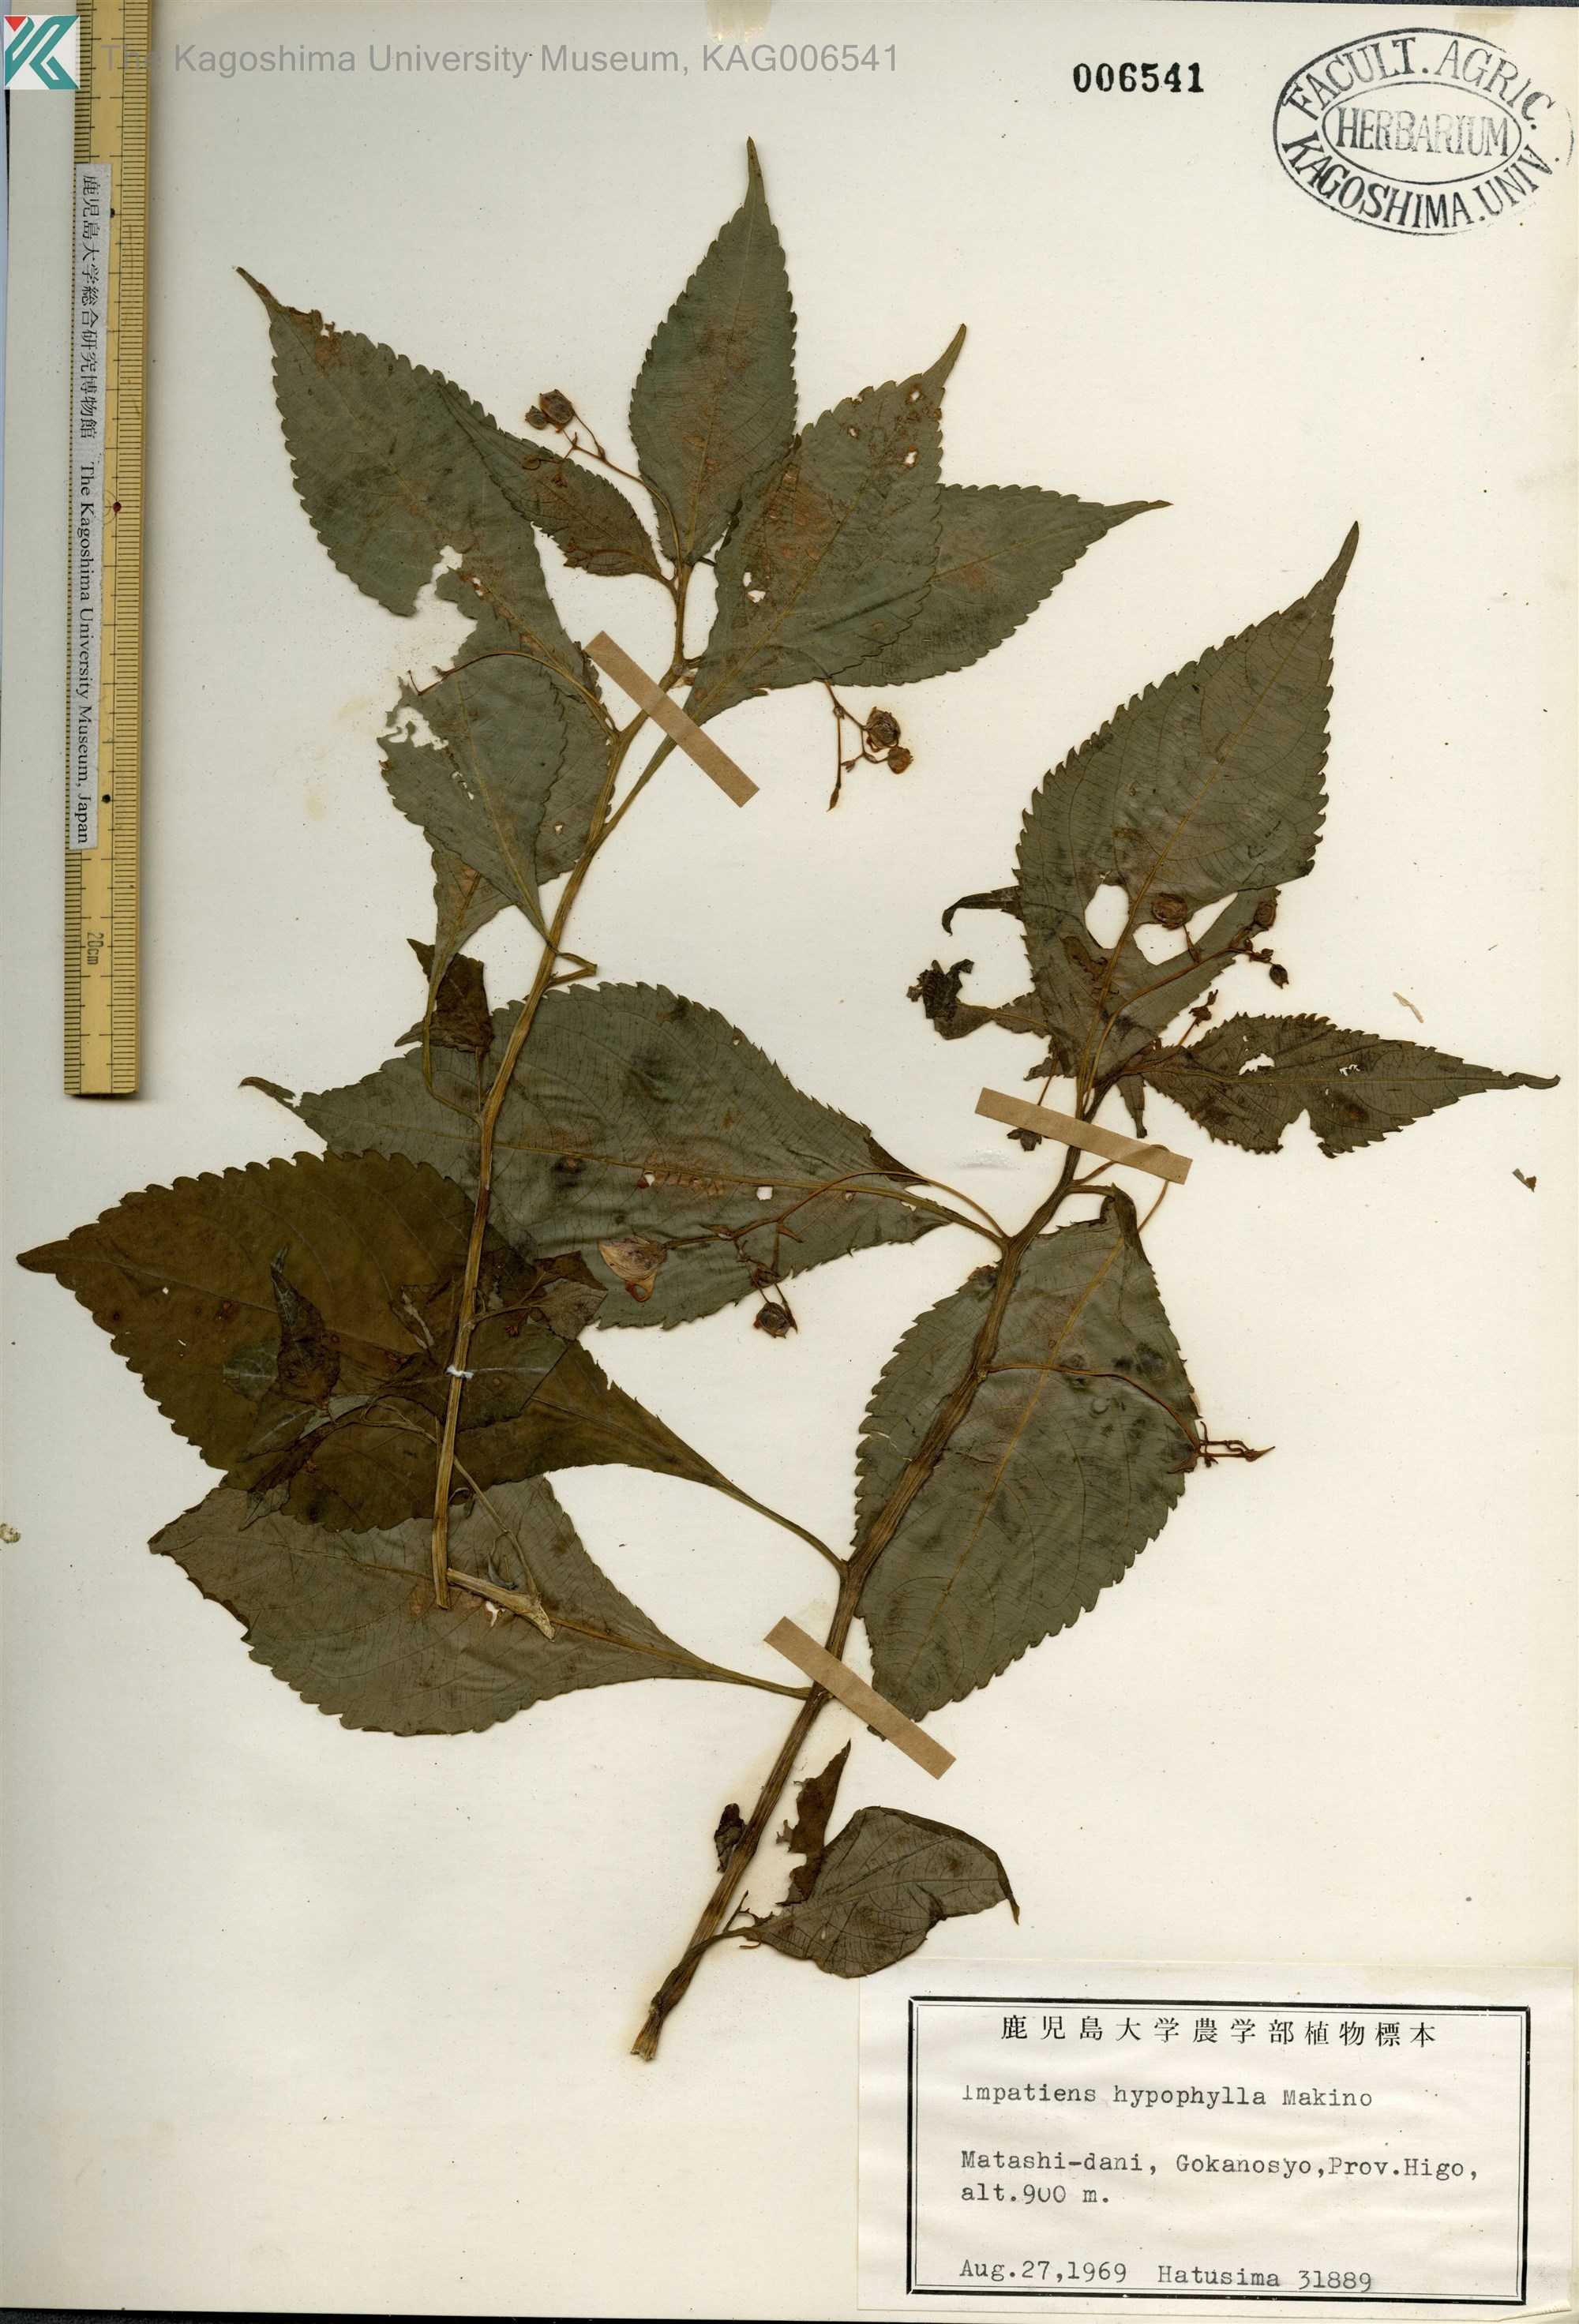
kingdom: Plantae
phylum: Tracheophyta
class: Magnoliopsida
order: Ericales
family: Balsaminaceae
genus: Impatiens
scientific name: Impatiens hypophylla
